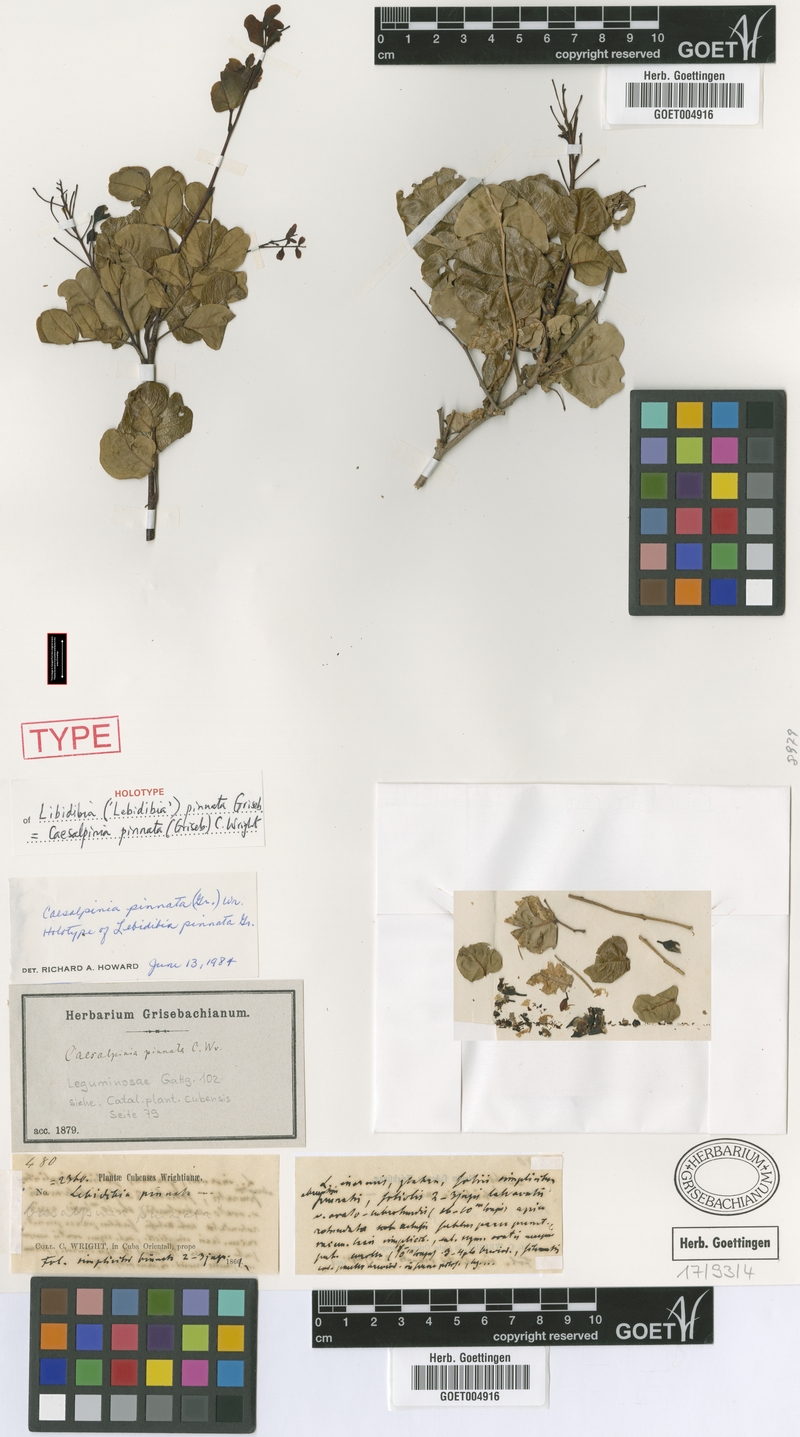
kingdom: Plantae
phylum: Tracheophyta
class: Magnoliopsida
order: Fabales
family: Fabaceae
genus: Cenostigma
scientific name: Cenostigma pinnatum
